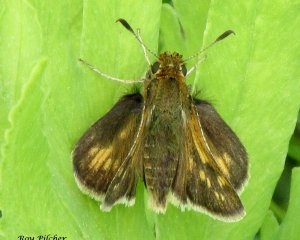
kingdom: Animalia
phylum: Arthropoda
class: Insecta
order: Lepidoptera
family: Hesperiidae
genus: Polites
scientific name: Polites coras
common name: Peck's Skipper
